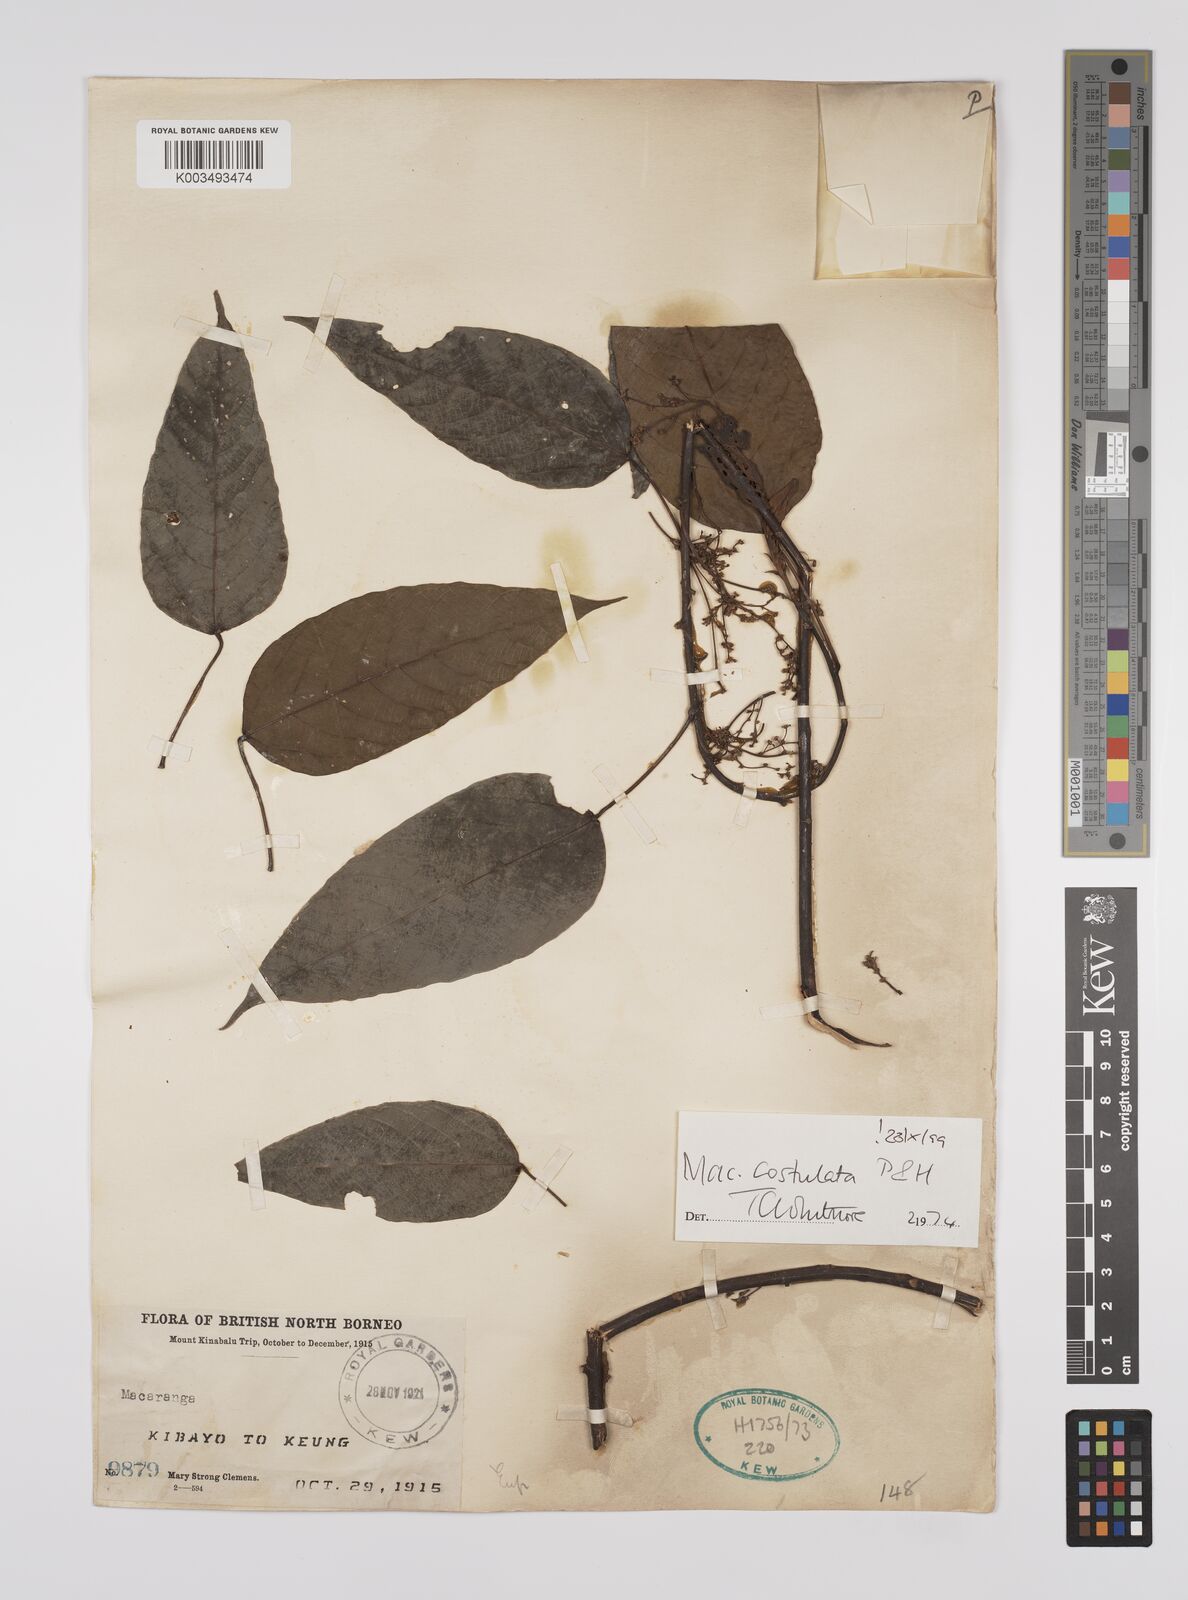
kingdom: Plantae
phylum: Tracheophyta
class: Magnoliopsida
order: Malpighiales
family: Euphorbiaceae
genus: Macaranga
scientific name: Macaranga costulata
